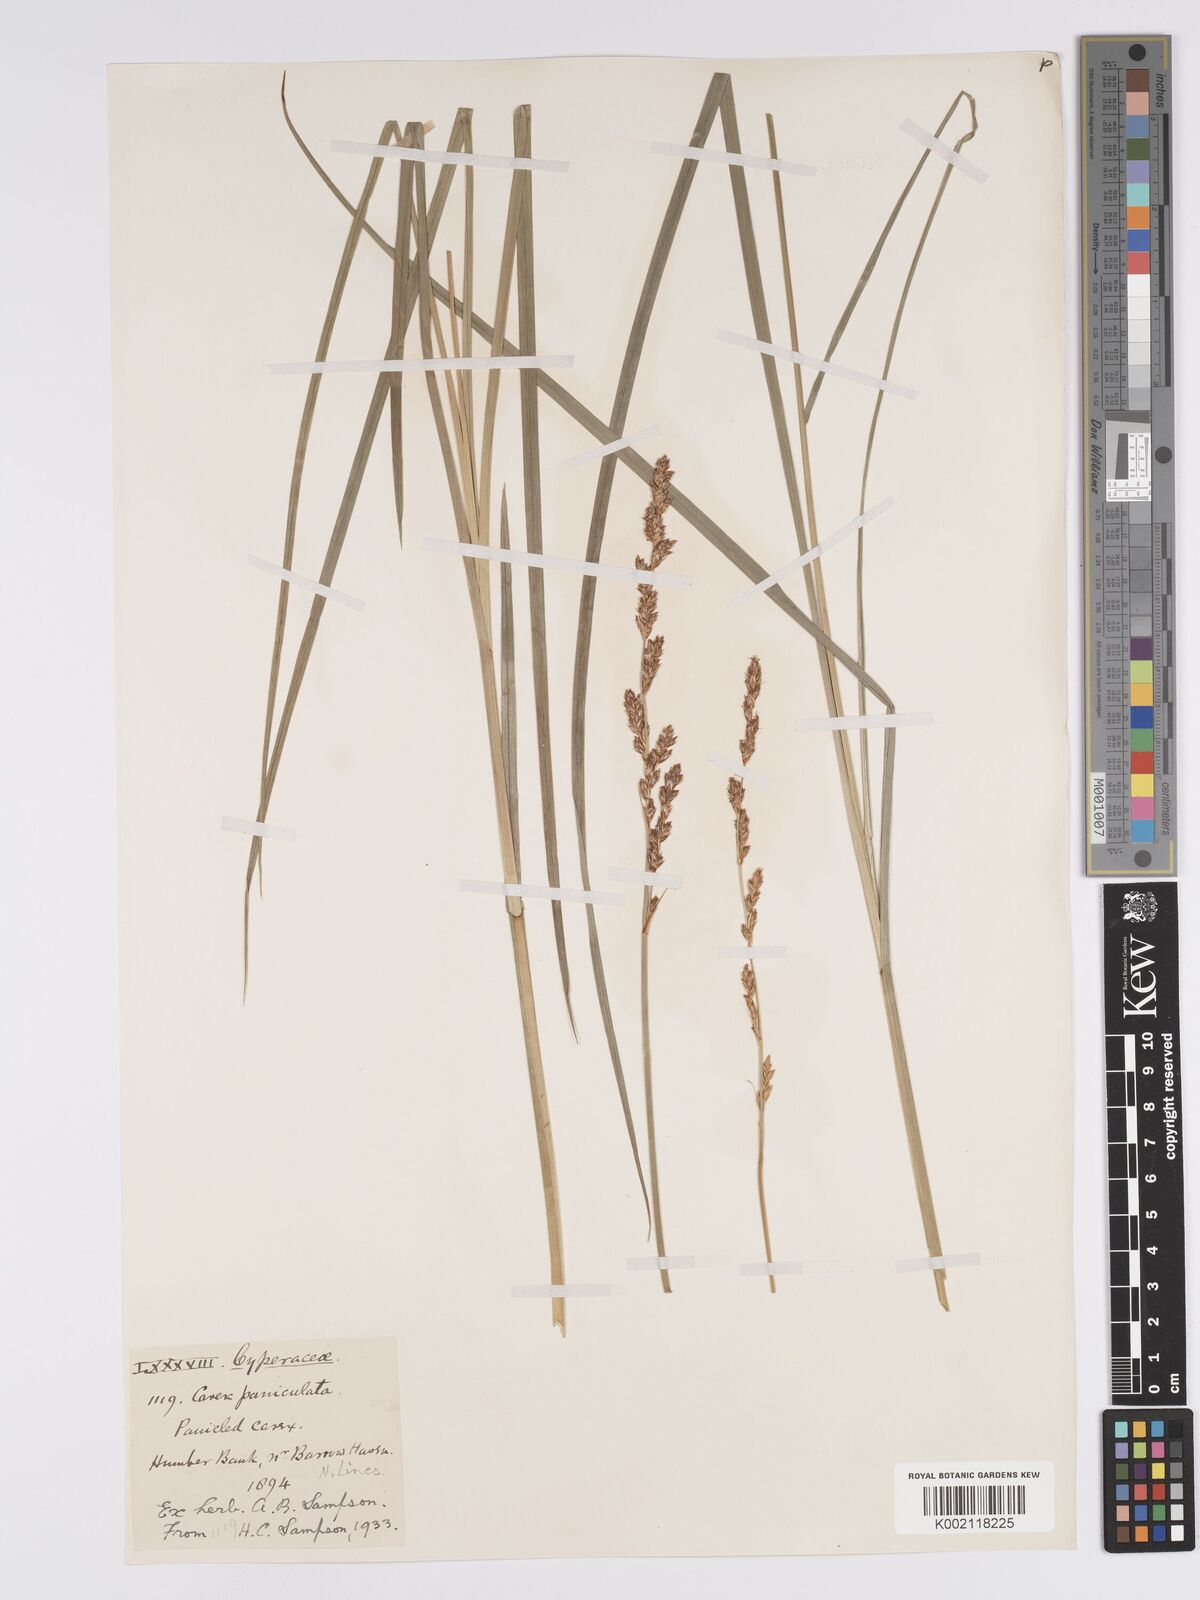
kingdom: Plantae
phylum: Tracheophyta
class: Liliopsida
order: Poales
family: Cyperaceae
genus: Carex
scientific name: Carex paniculata
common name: Greater tussock-sedge
